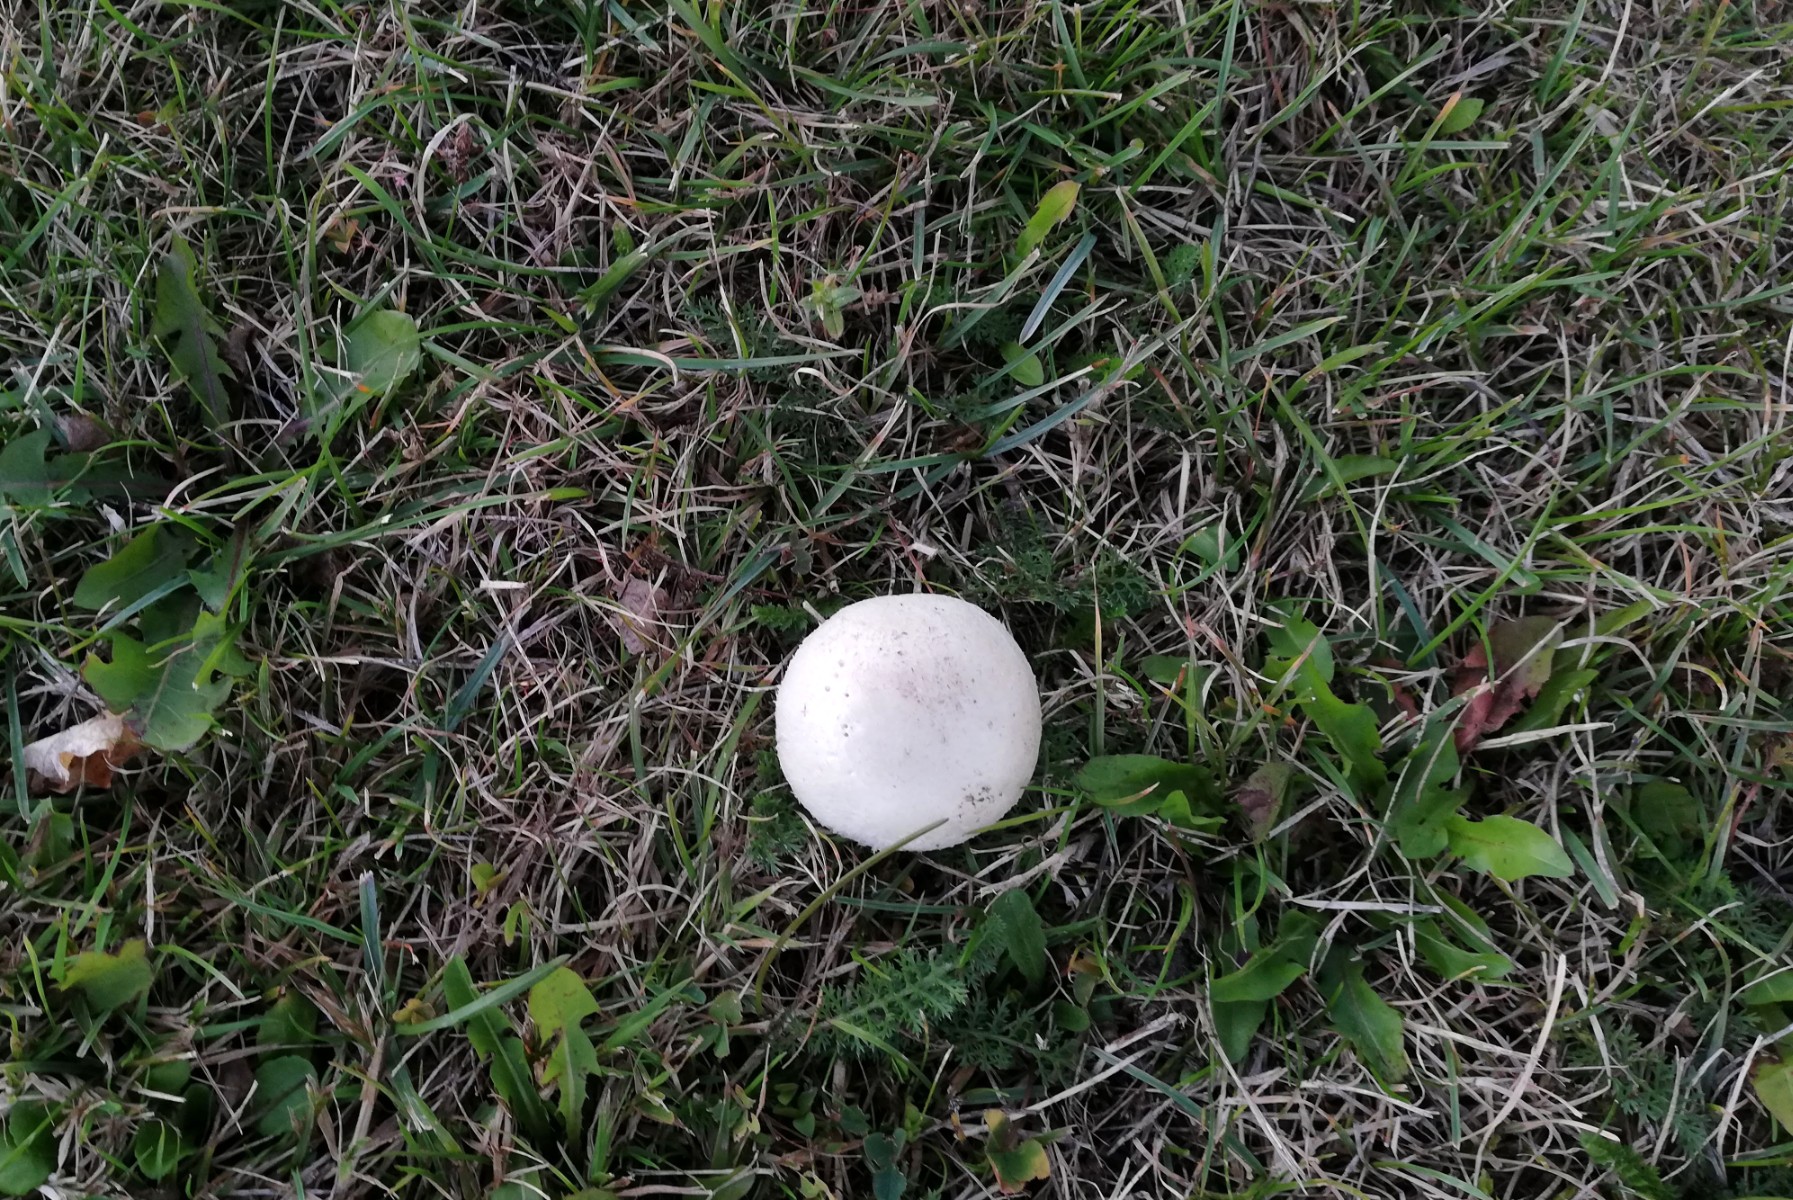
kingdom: Fungi
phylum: Basidiomycota
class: Agaricomycetes
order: Agaricales
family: Agaricaceae
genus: Agaricus
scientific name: Agaricus campestris
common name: mark-champignon
